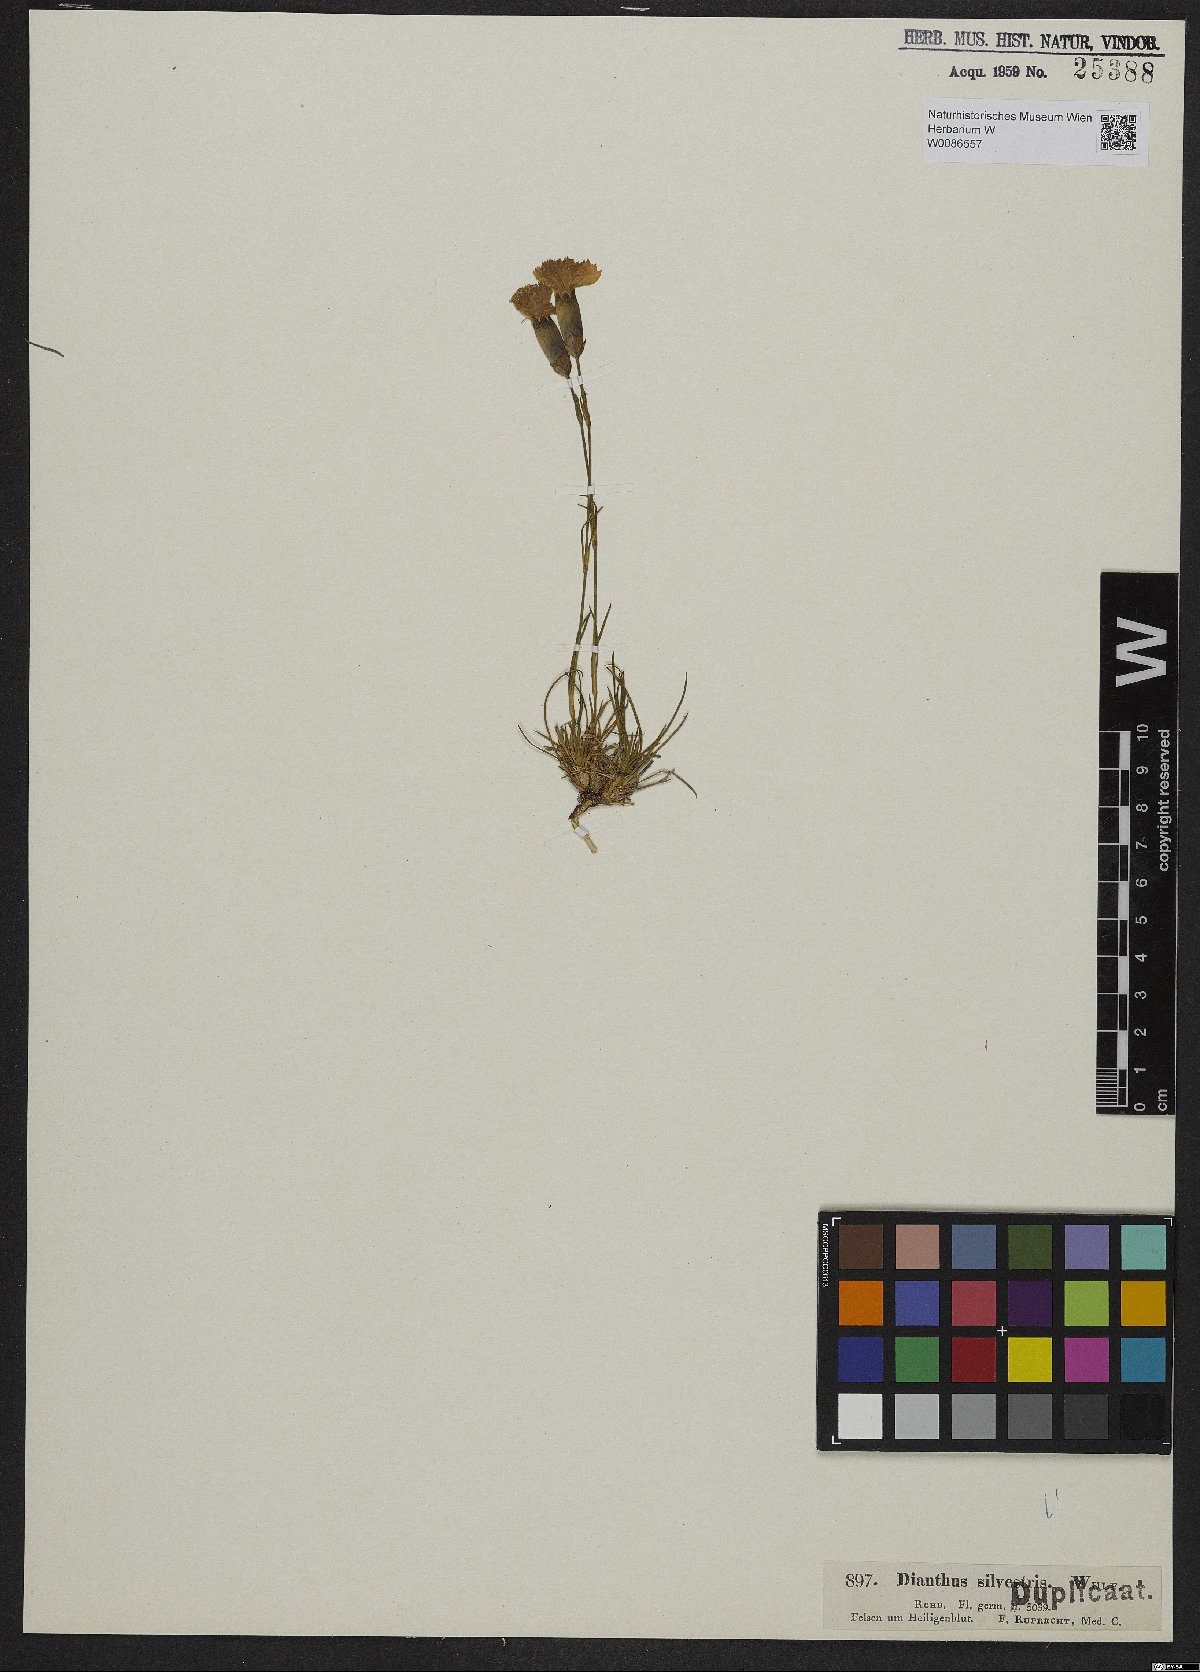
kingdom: Plantae
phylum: Tracheophyta
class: Magnoliopsida
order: Caryophyllales
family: Caryophyllaceae
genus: Dianthus
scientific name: Dianthus sylvestris
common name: Wood pink
